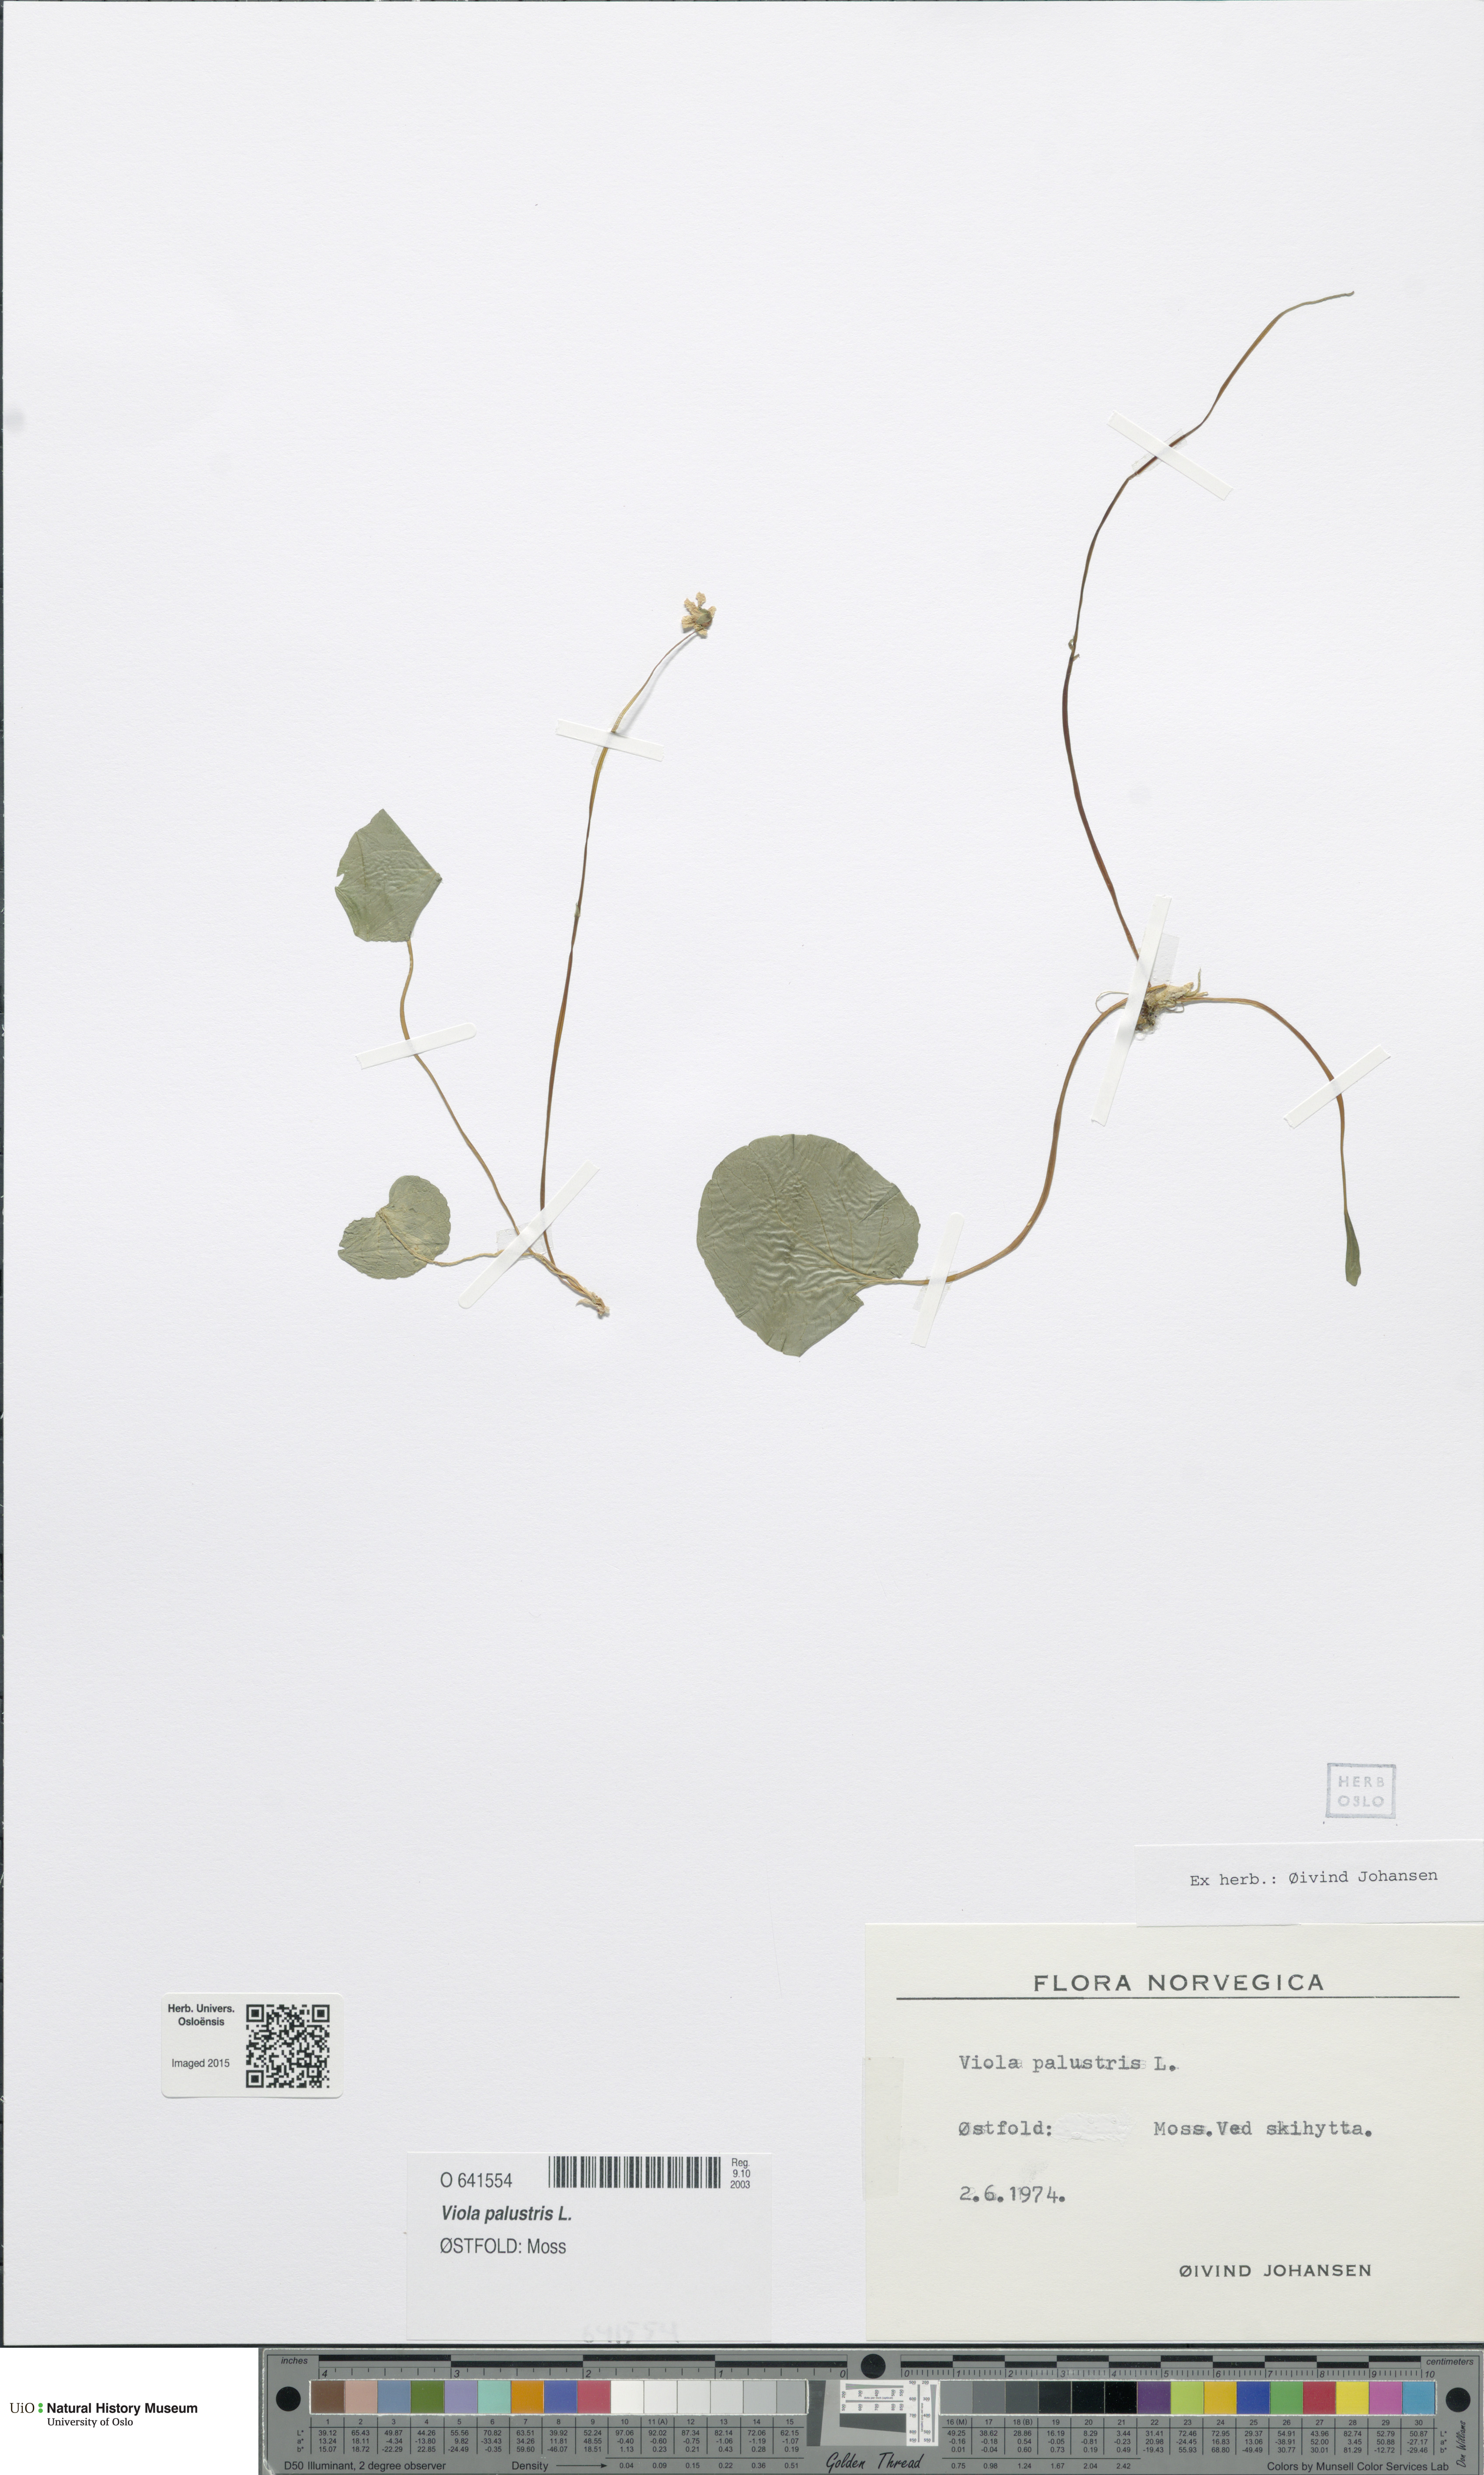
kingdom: Plantae
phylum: Tracheophyta
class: Magnoliopsida
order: Malpighiales
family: Violaceae
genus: Viola
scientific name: Viola palustris
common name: Marsh violet
